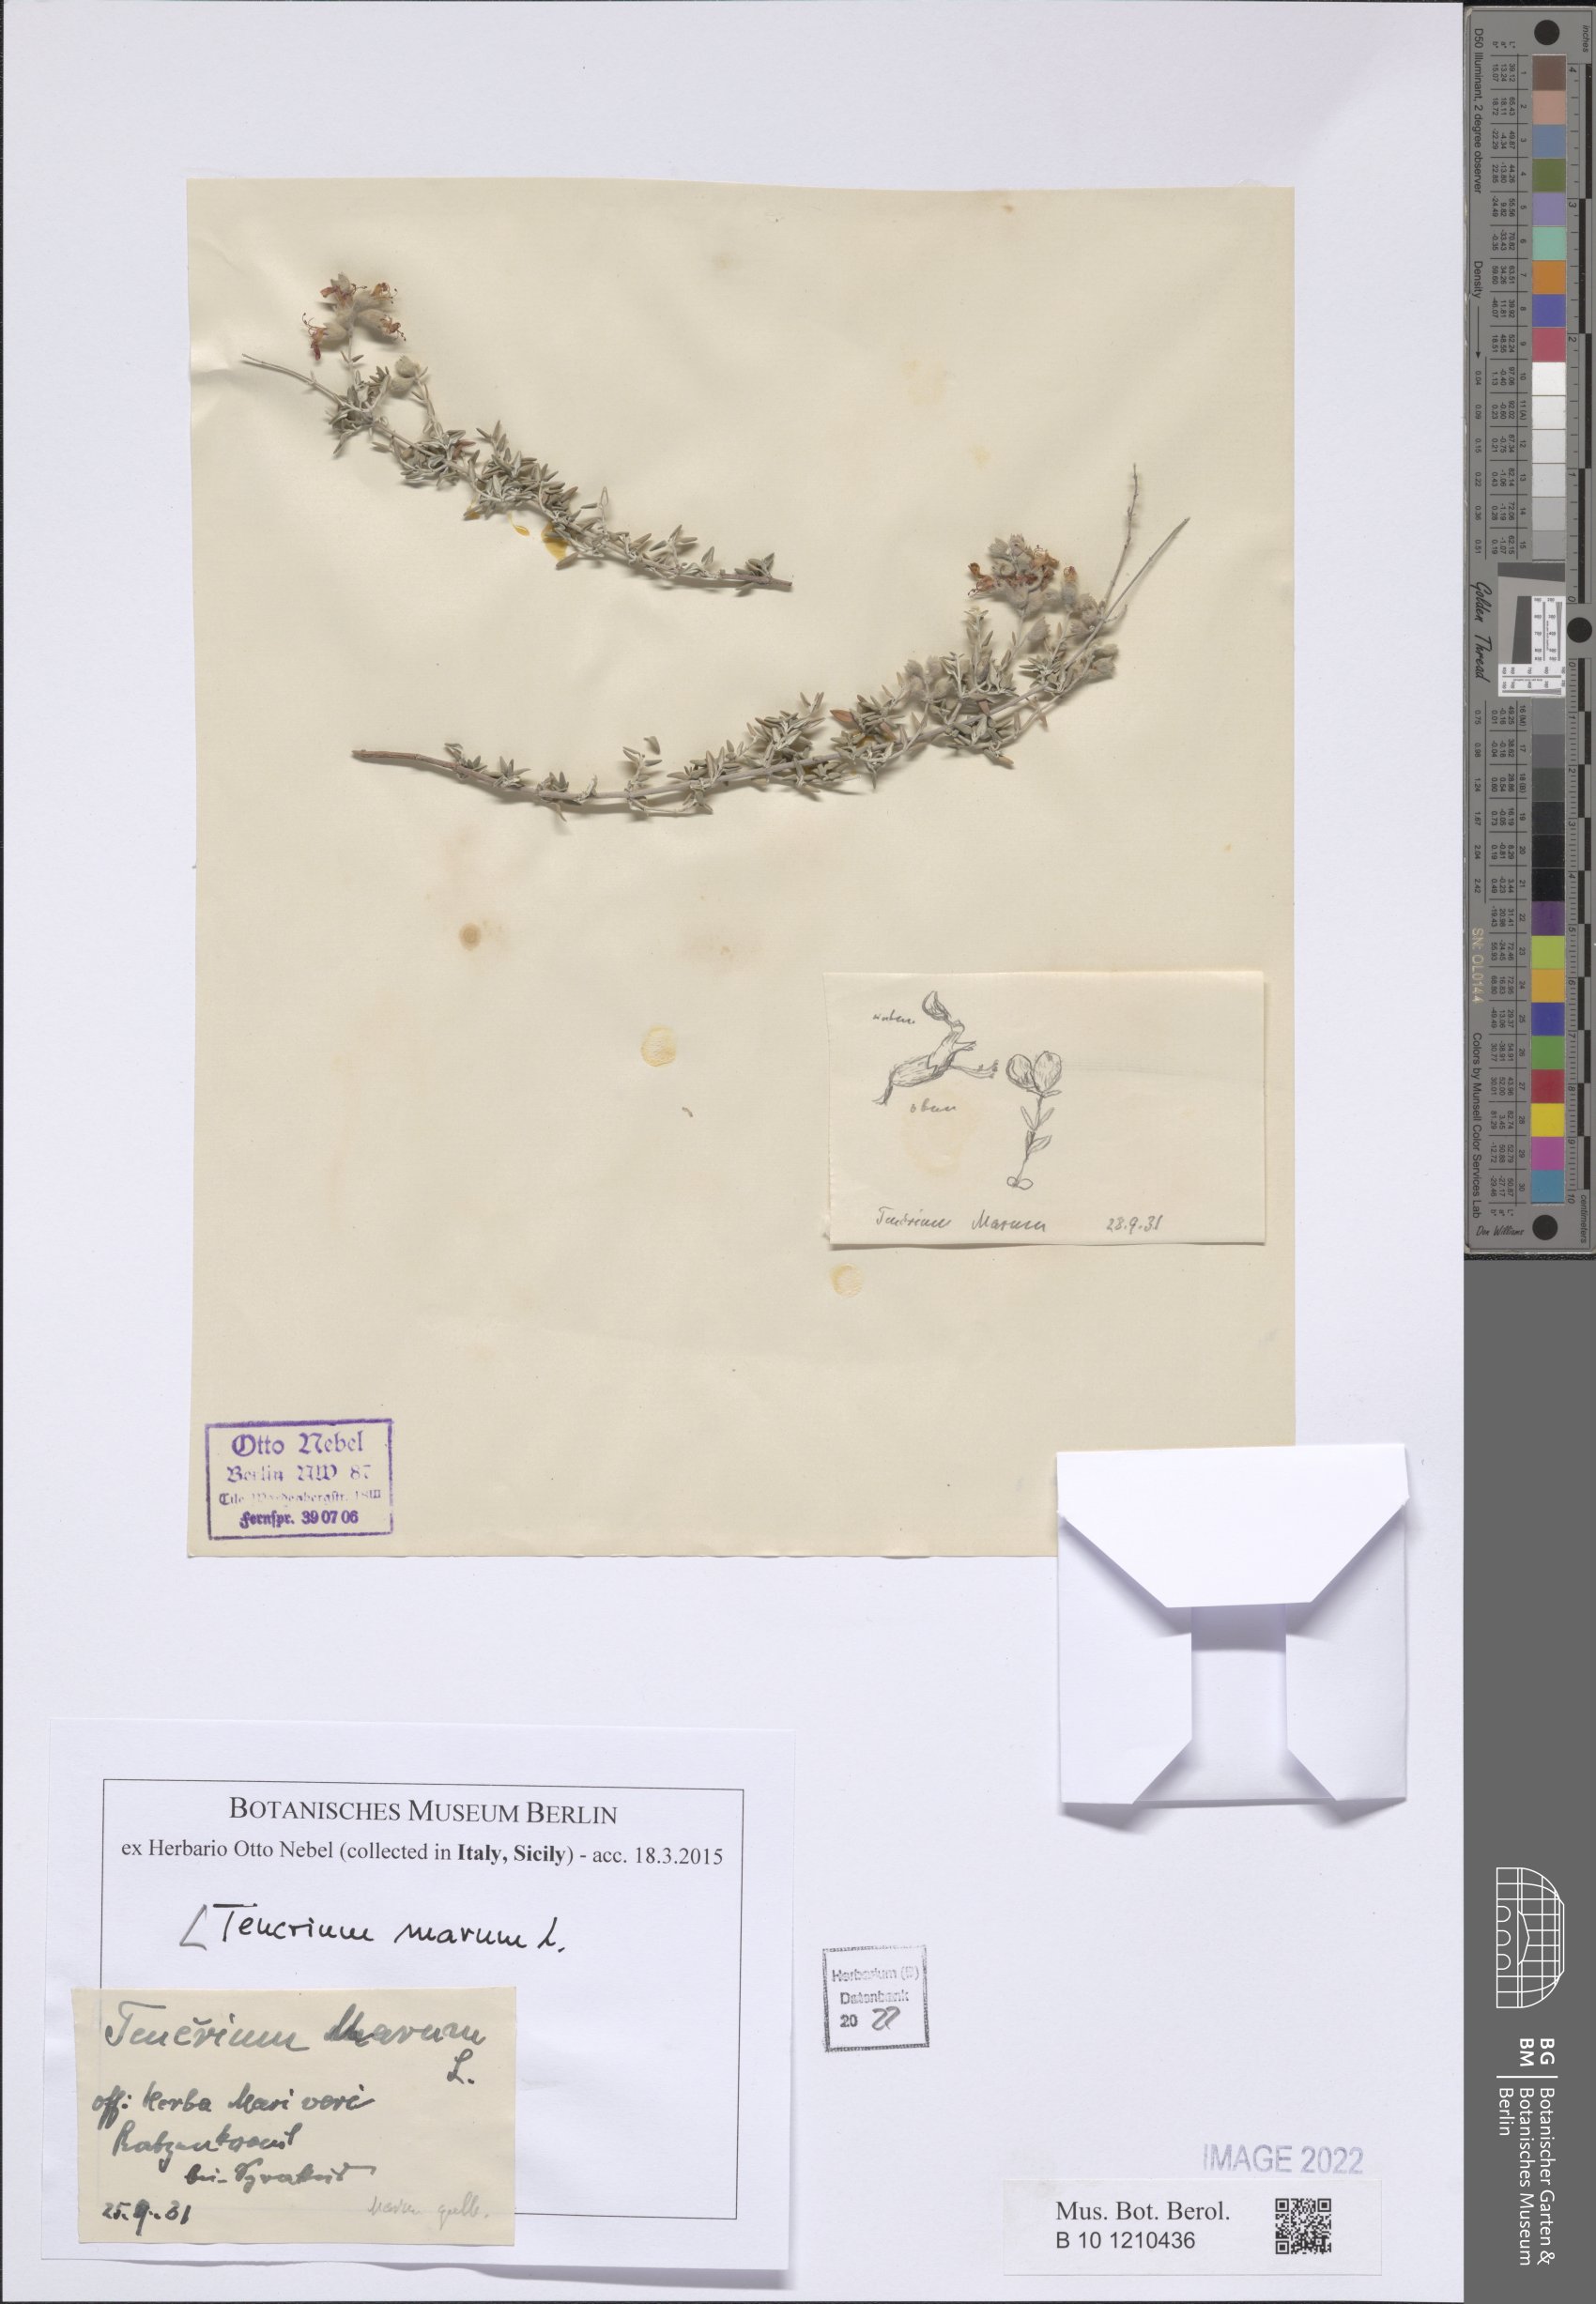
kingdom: Plantae
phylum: Tracheophyta
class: Magnoliopsida
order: Lamiales
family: Lamiaceae
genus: Teucrium
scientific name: Teucrium marum
